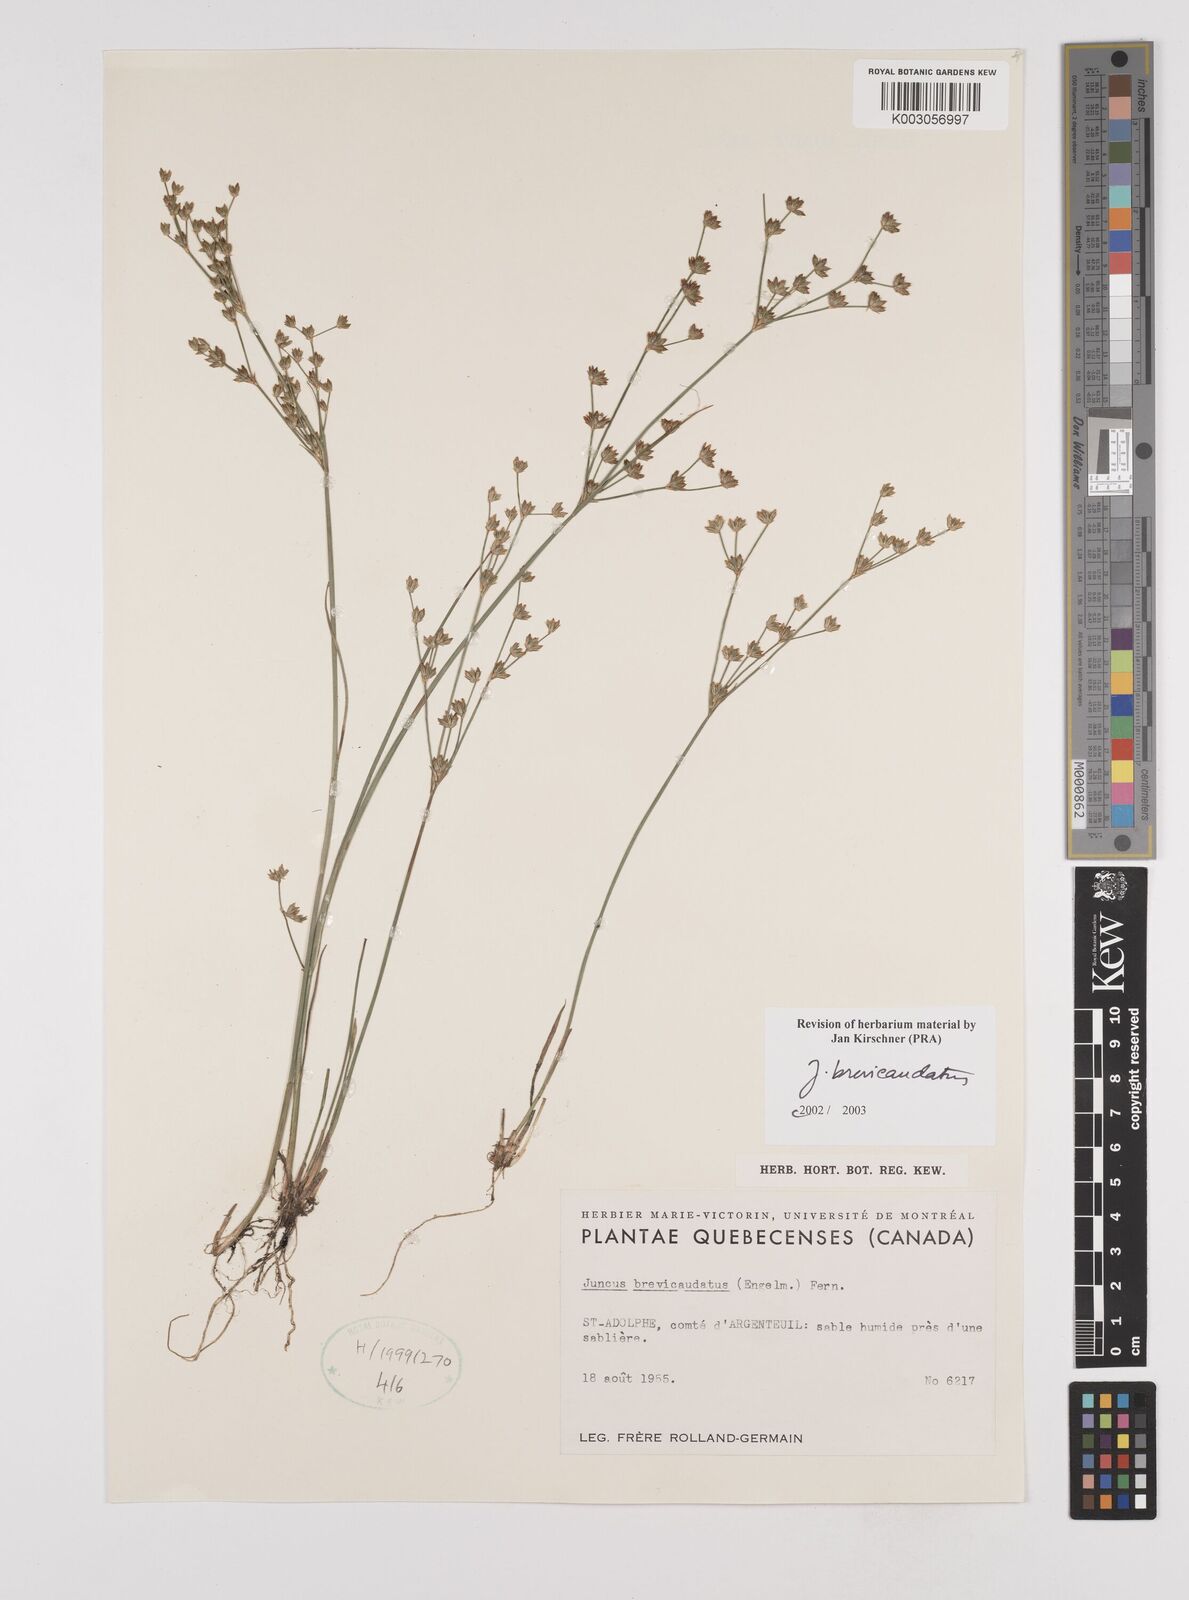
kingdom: Plantae
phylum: Tracheophyta
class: Liliopsida
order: Poales
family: Juncaceae
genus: Juncus
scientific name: Juncus brevicaudatus
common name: Narrow-panicle rush
